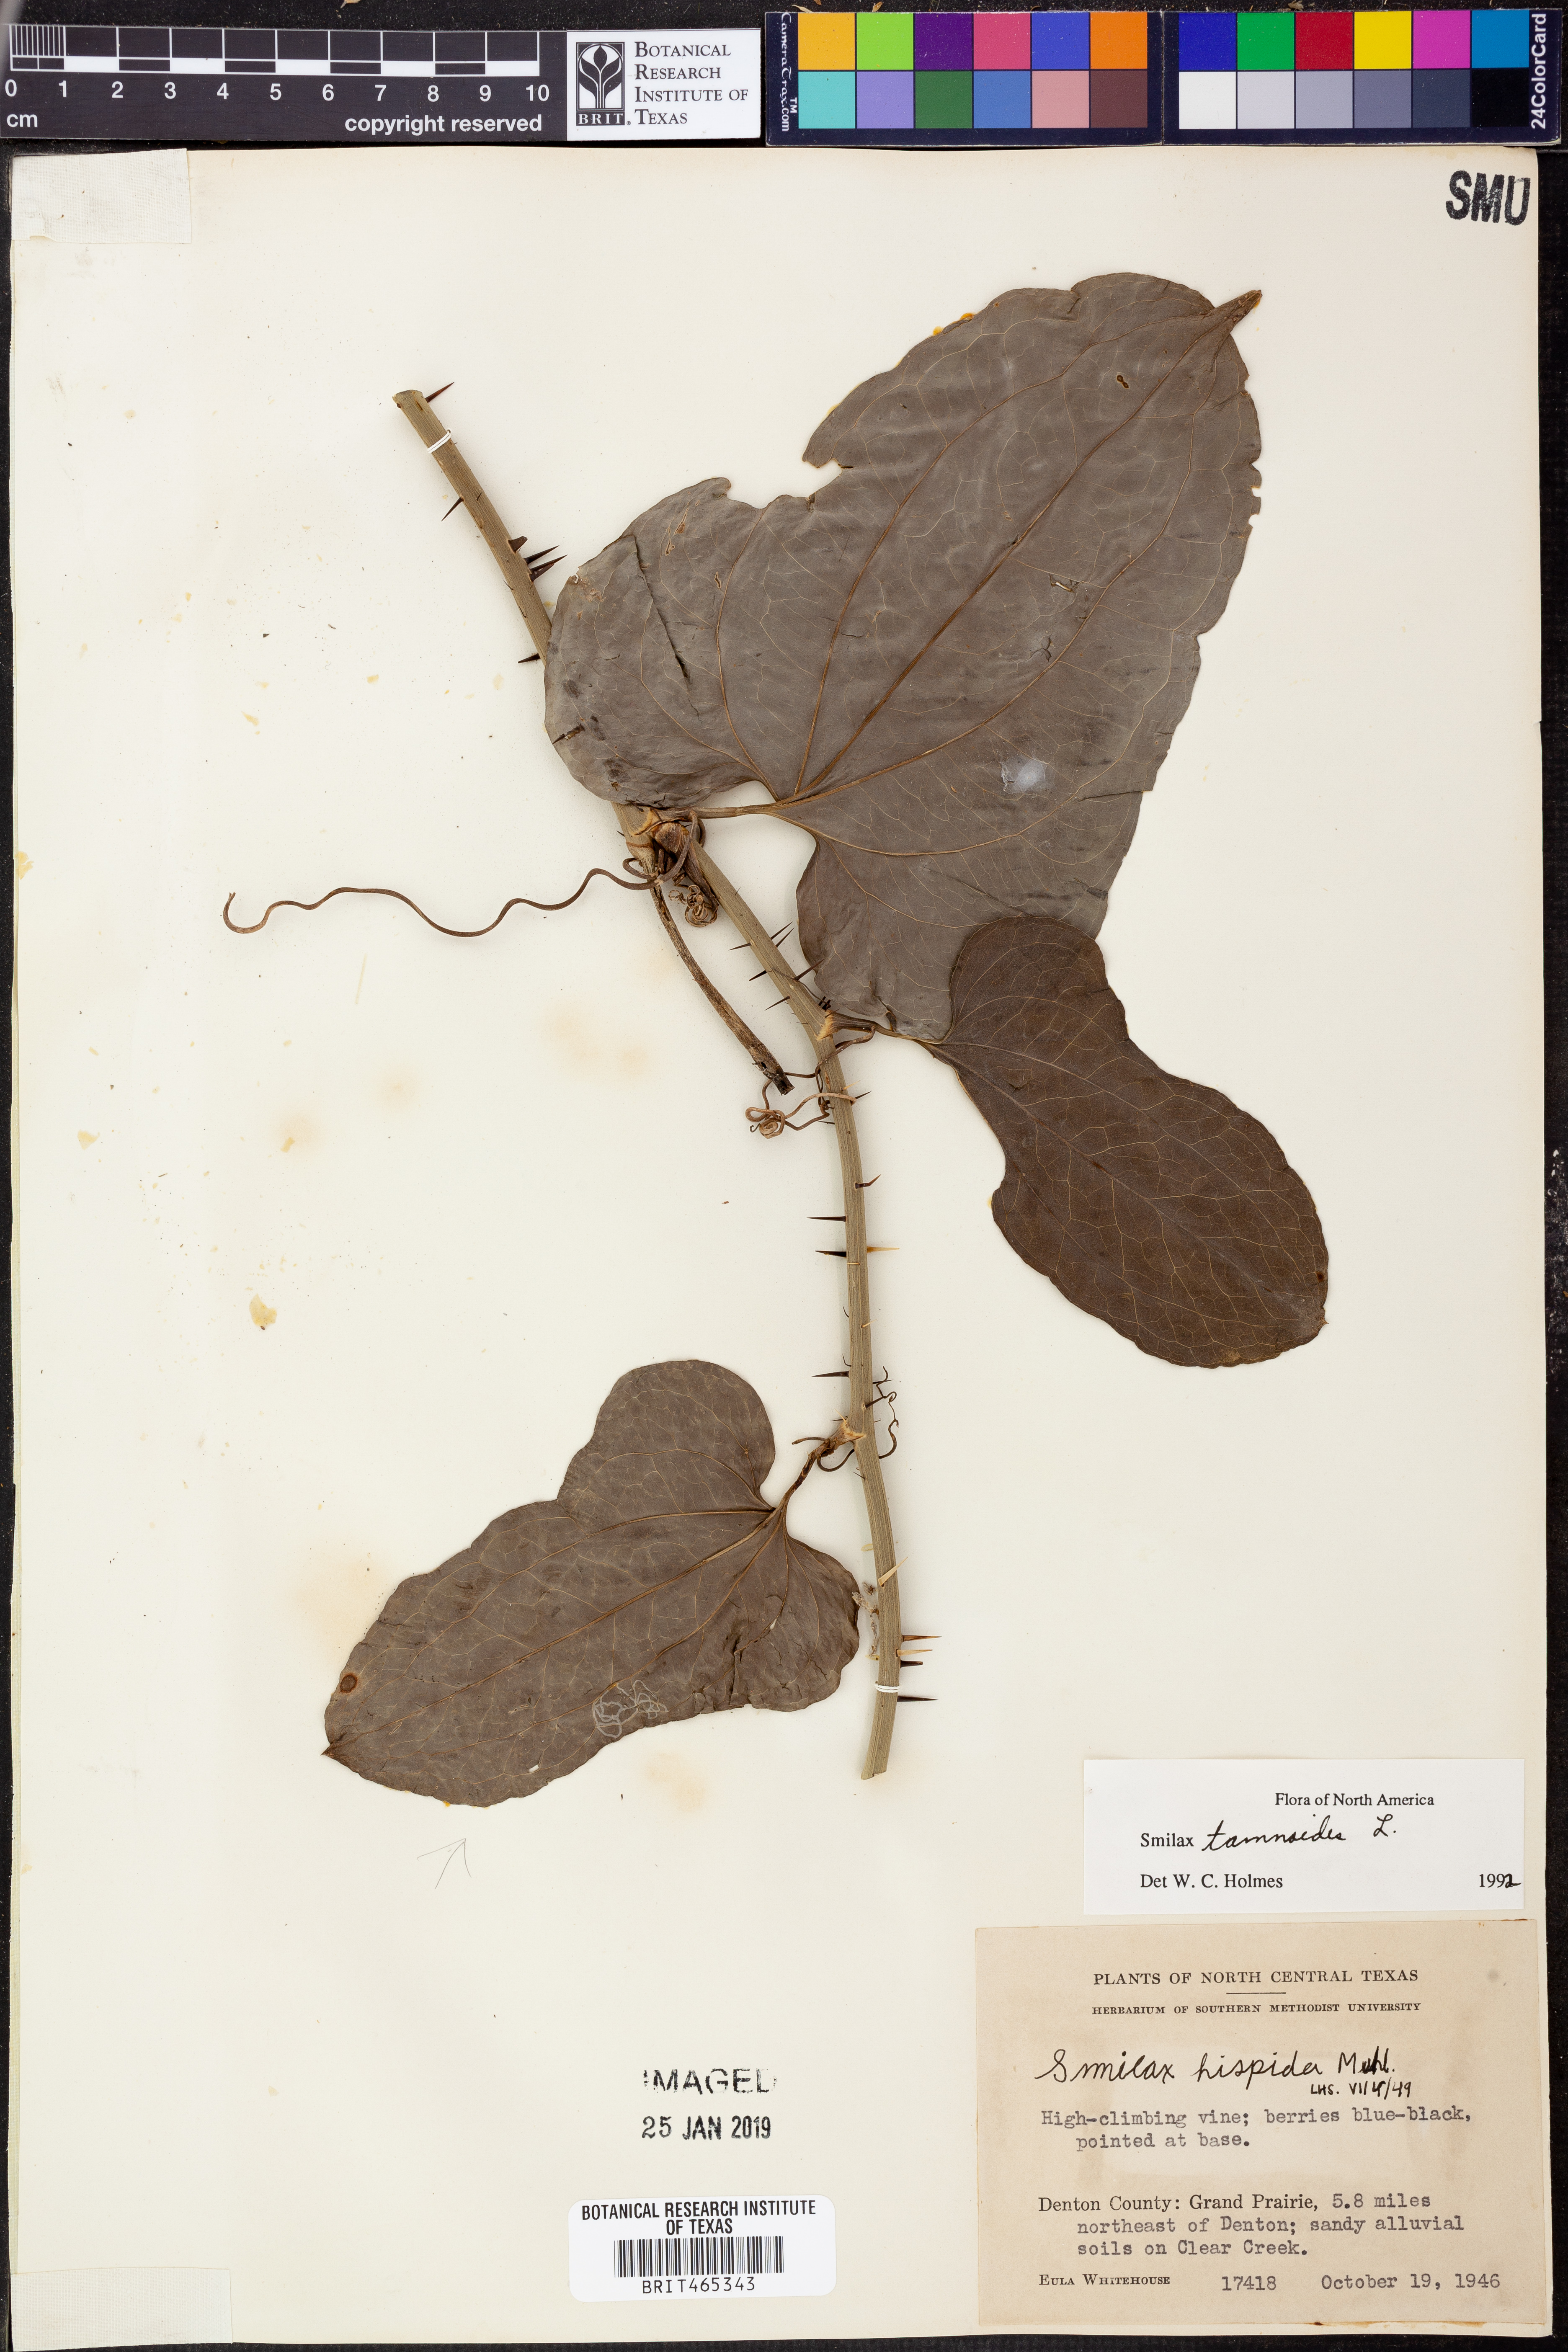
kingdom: Plantae
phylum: Tracheophyta
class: Liliopsida
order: Liliales
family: Smilacaceae
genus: Smilax
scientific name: Smilax tamnoides
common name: Hellfetter
